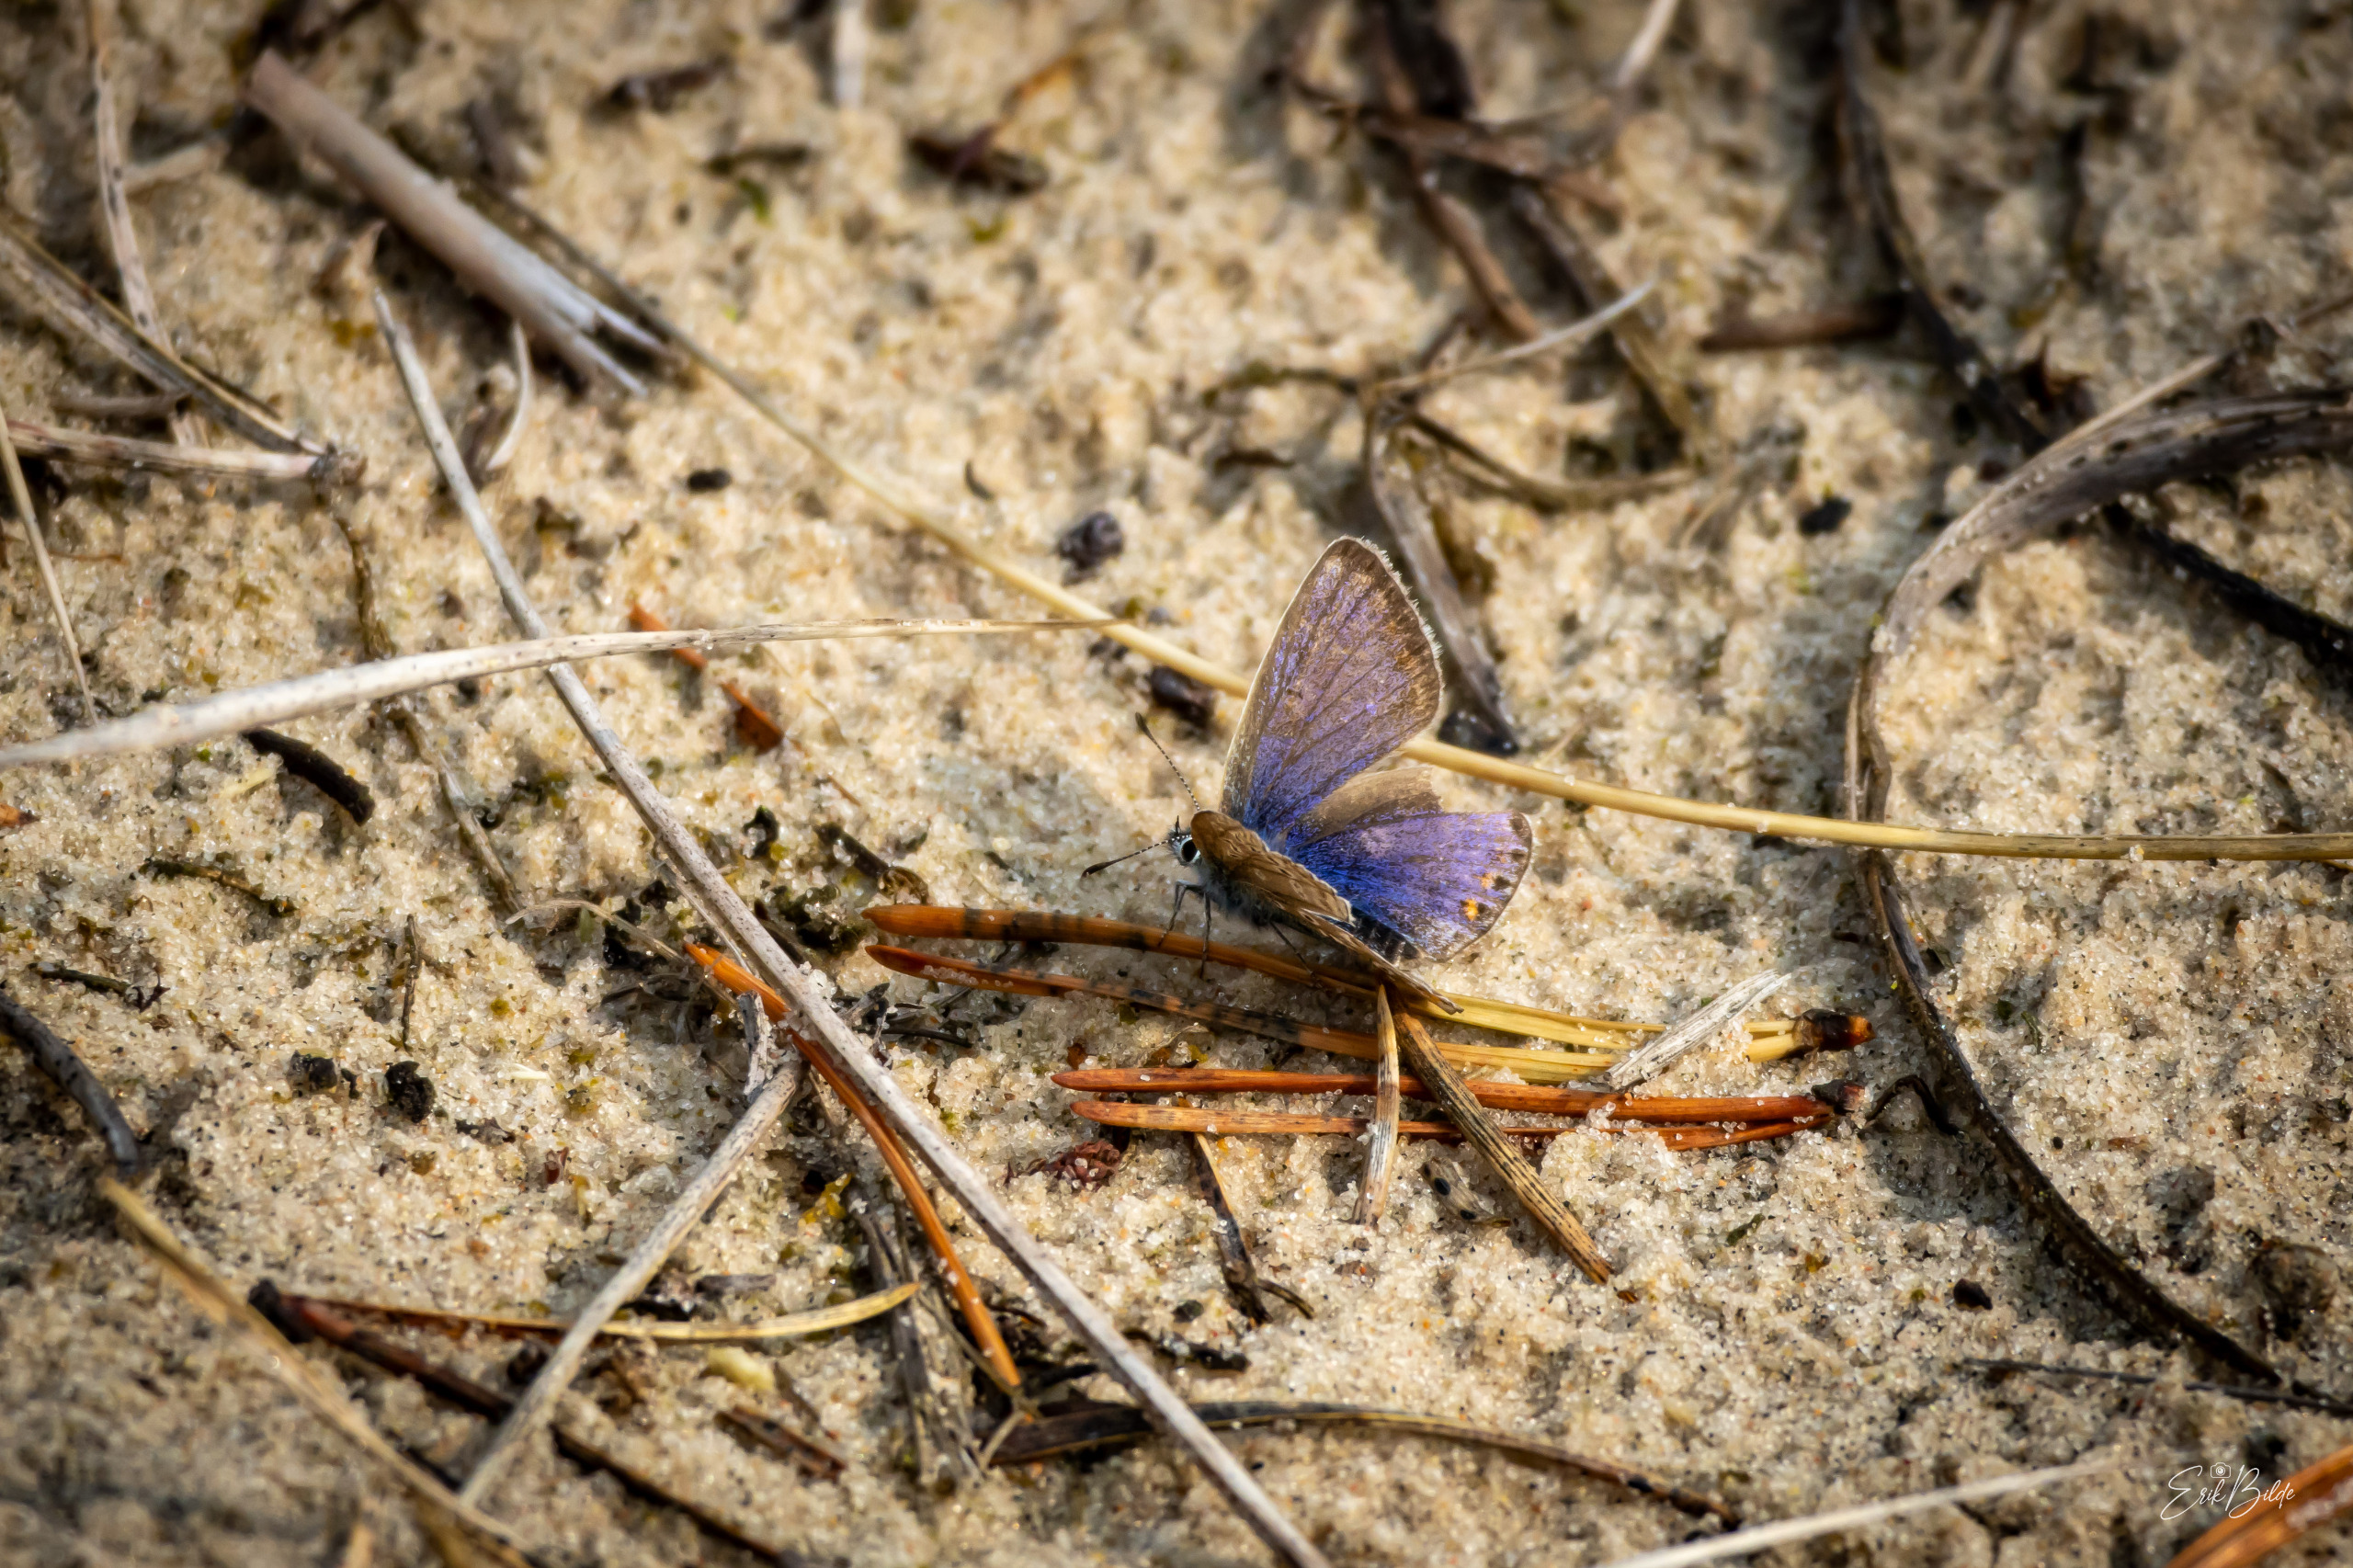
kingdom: Animalia
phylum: Arthropoda
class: Insecta
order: Lepidoptera
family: Lycaenidae
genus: Polyommatus
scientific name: Polyommatus icarus
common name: Almindelig blåfugl
